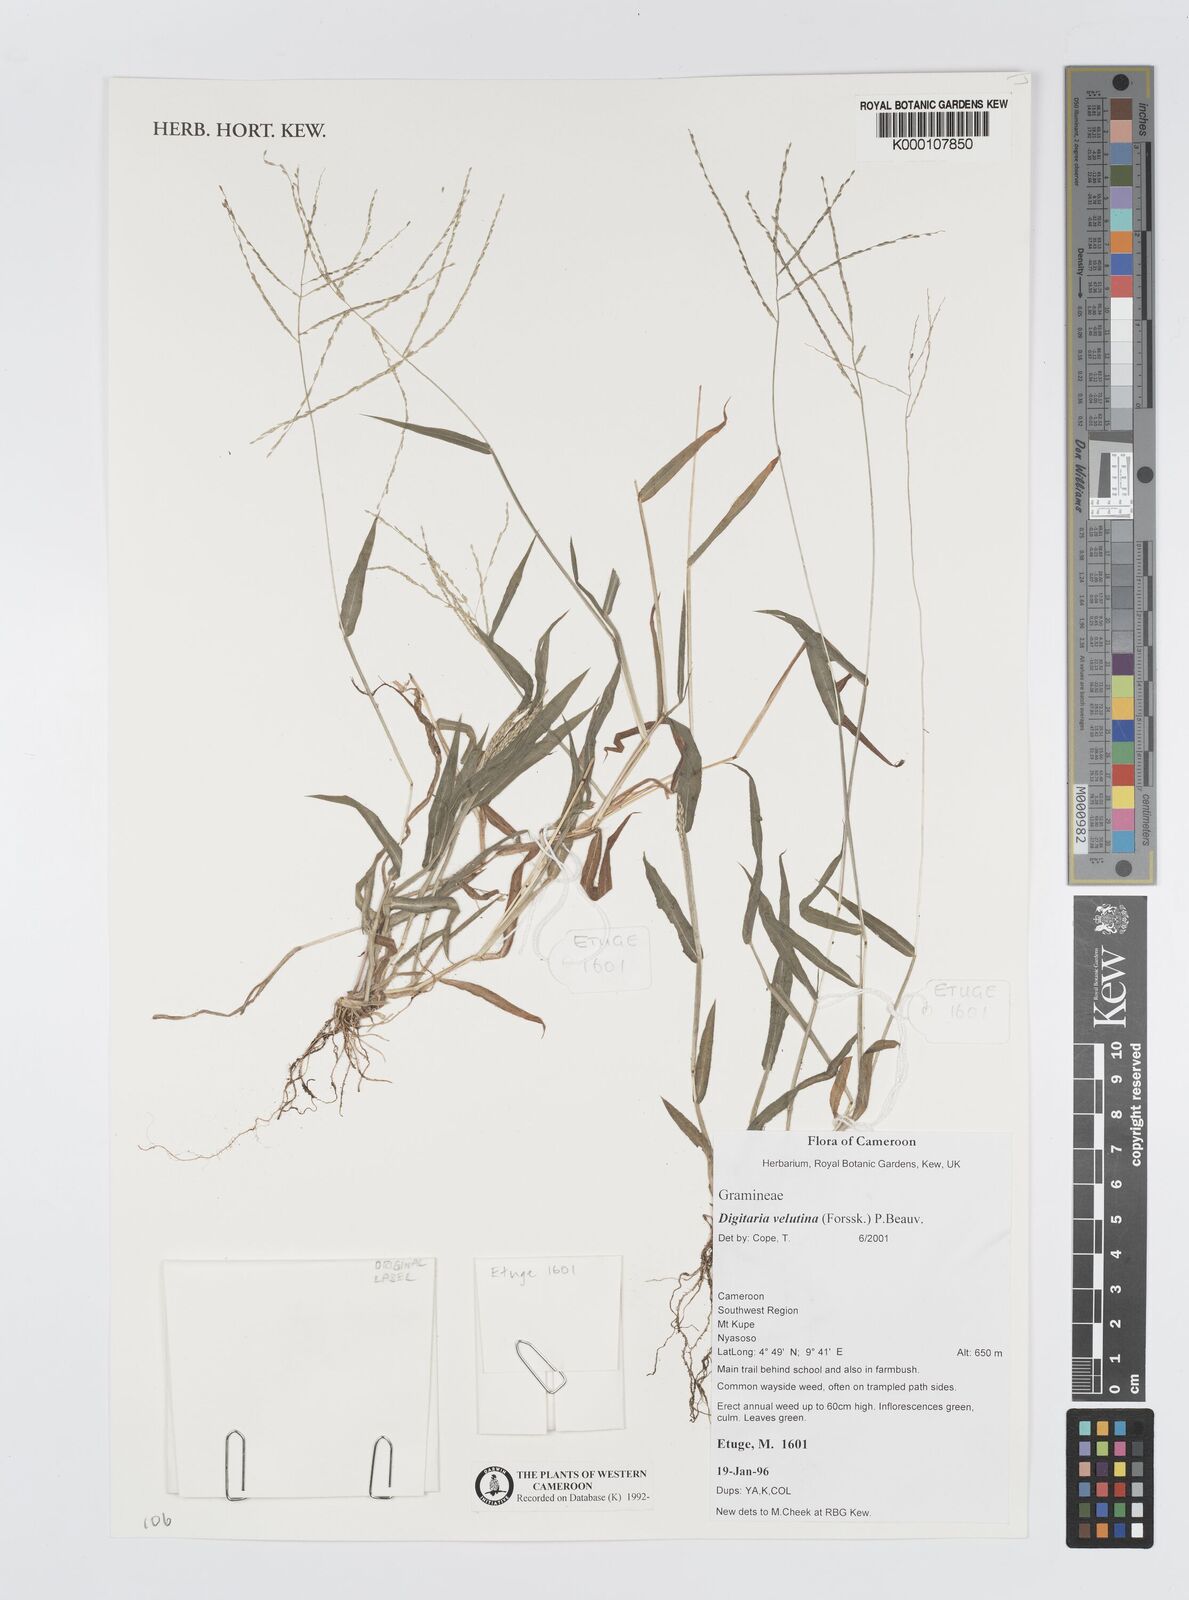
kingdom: Plantae
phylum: Tracheophyta
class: Liliopsida
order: Poales
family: Poaceae
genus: Digitaria
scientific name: Digitaria velutina
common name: Long-plume finger grass
